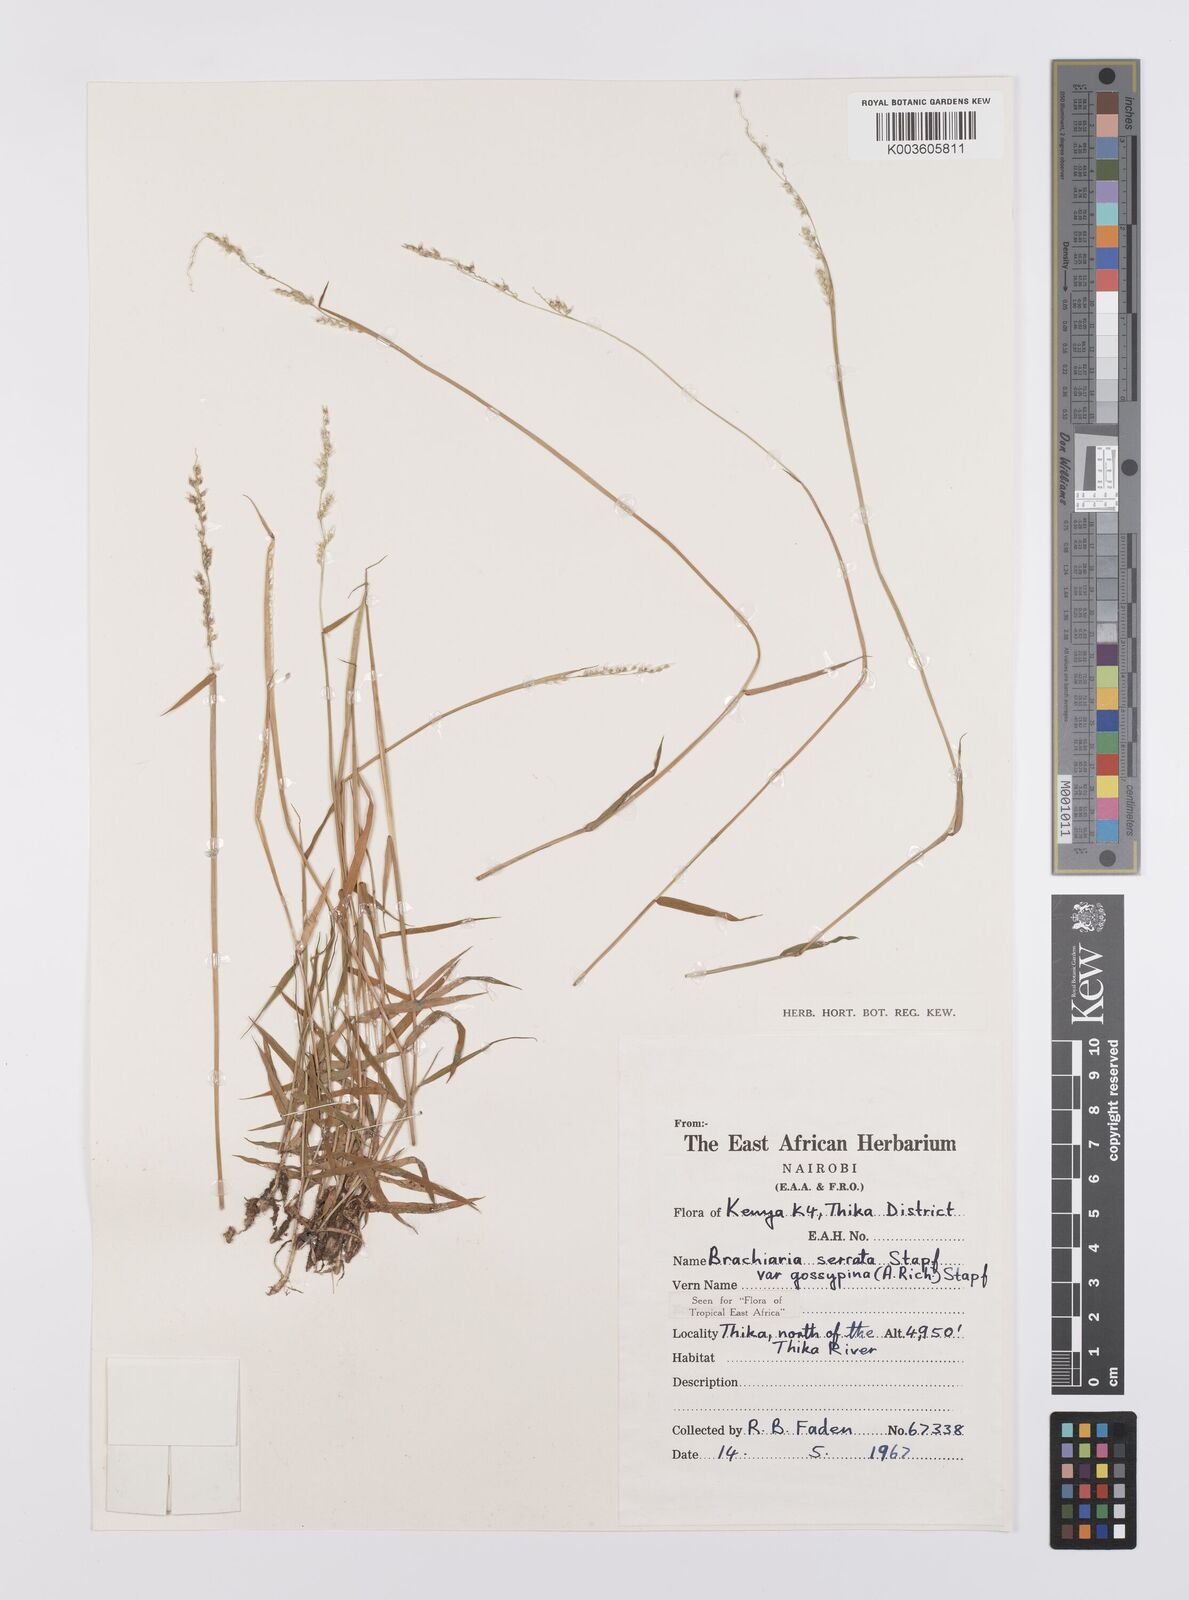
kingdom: Plantae
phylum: Tracheophyta
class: Liliopsida
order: Poales
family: Poaceae
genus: Urochloa
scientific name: Urochloa serrata
